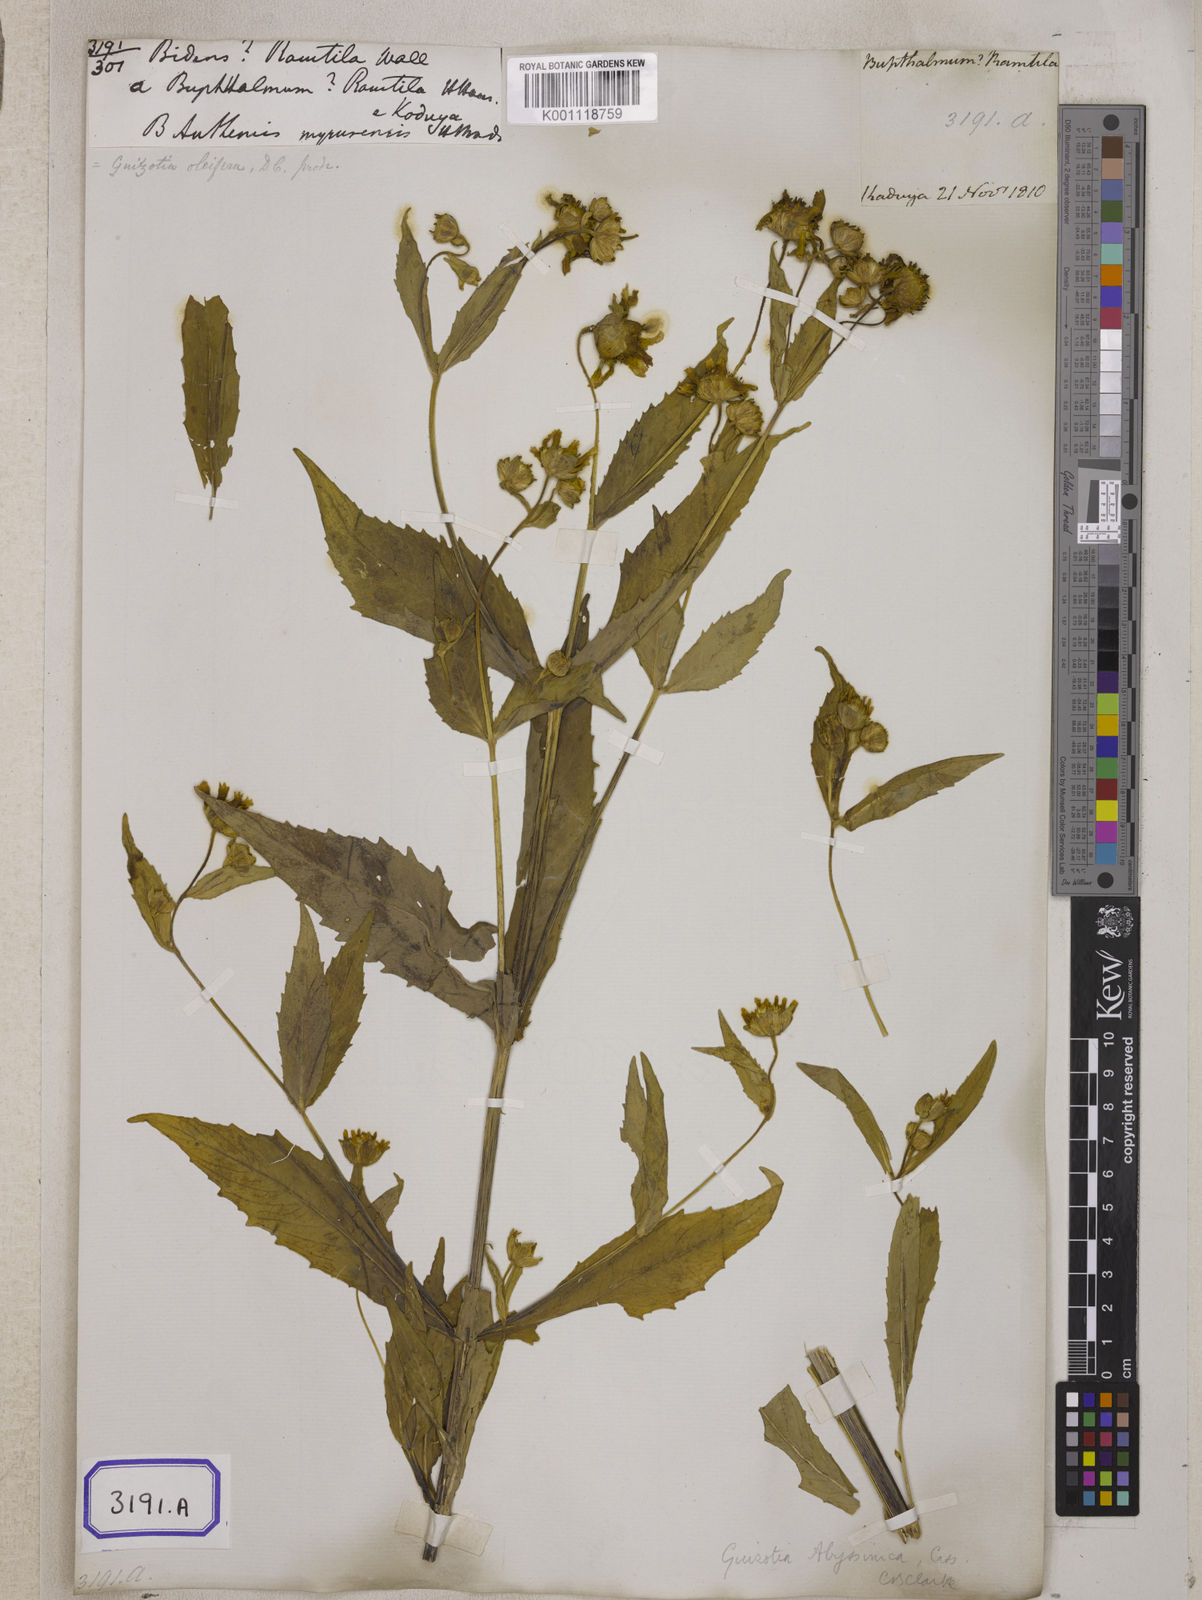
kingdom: Plantae
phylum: Tracheophyta
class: Magnoliopsida
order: Asterales
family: Asteraceae
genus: Guizotia
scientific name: Guizotia abyssinica
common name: Niger
